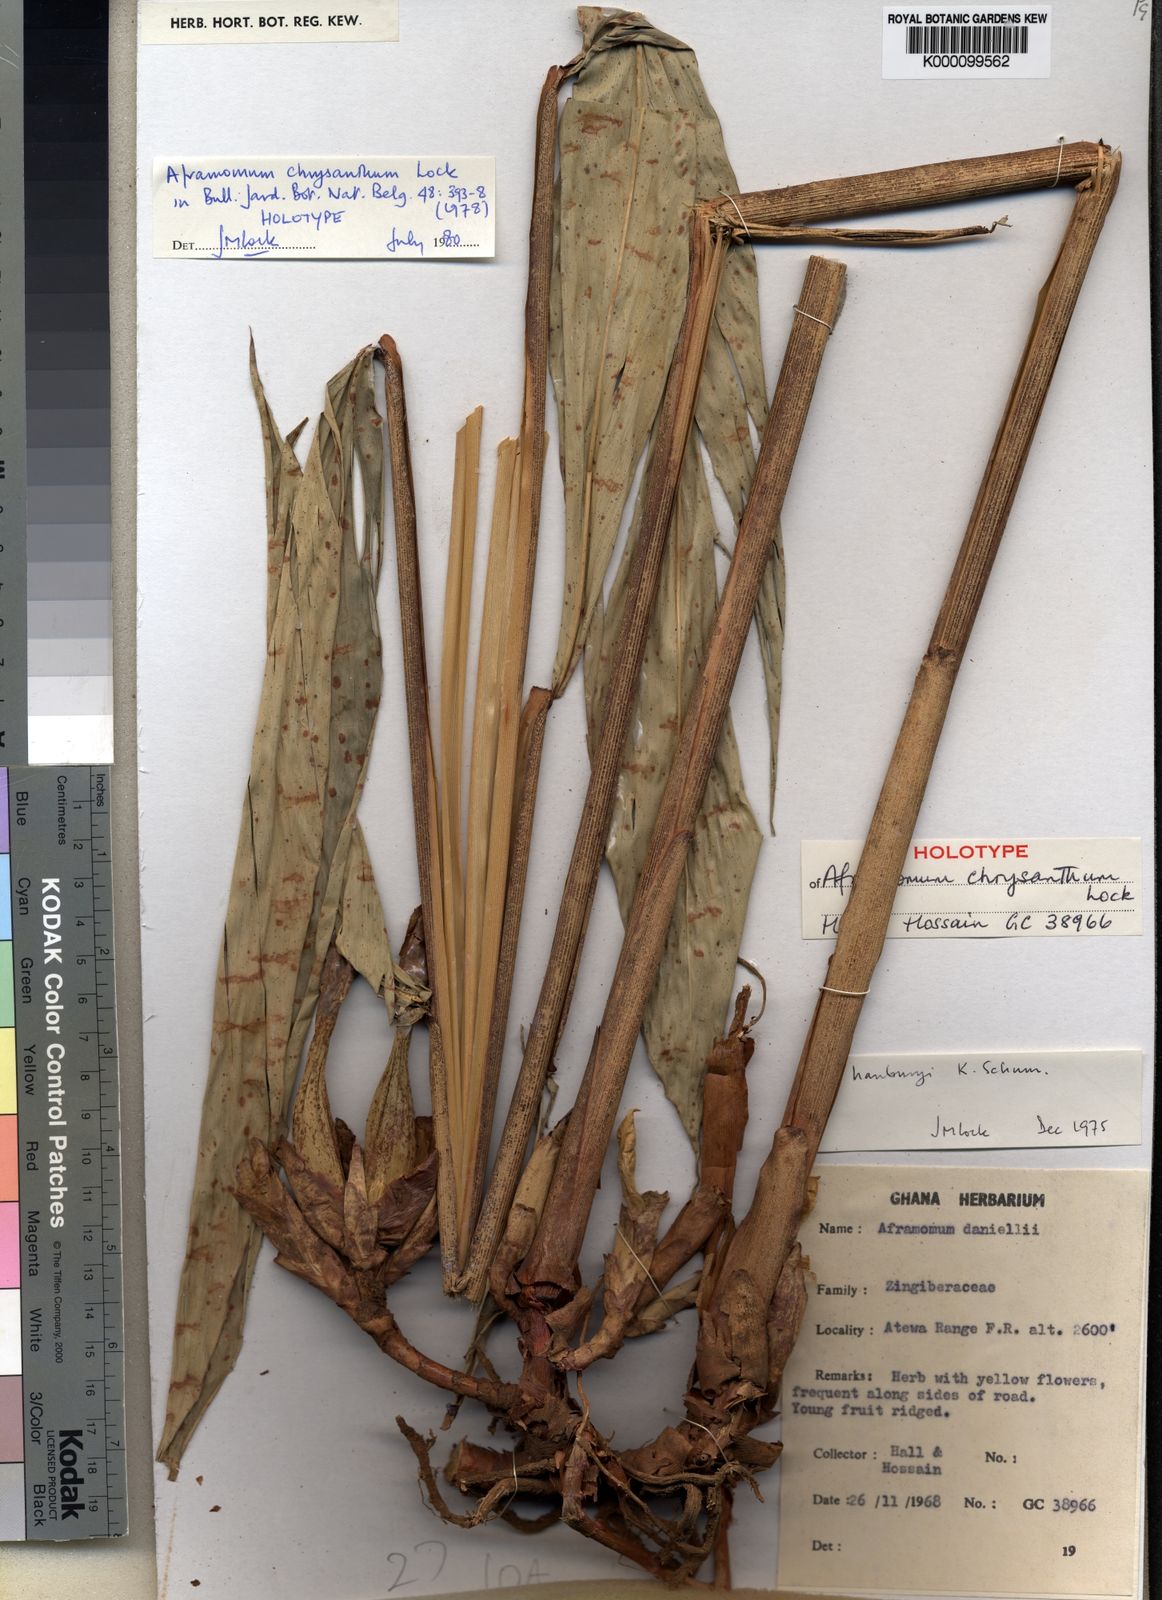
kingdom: Plantae
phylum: Tracheophyta
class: Liliopsida
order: Zingiberales
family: Zingiberaceae
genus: Aframomum
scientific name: Aframomum chrysanthum
